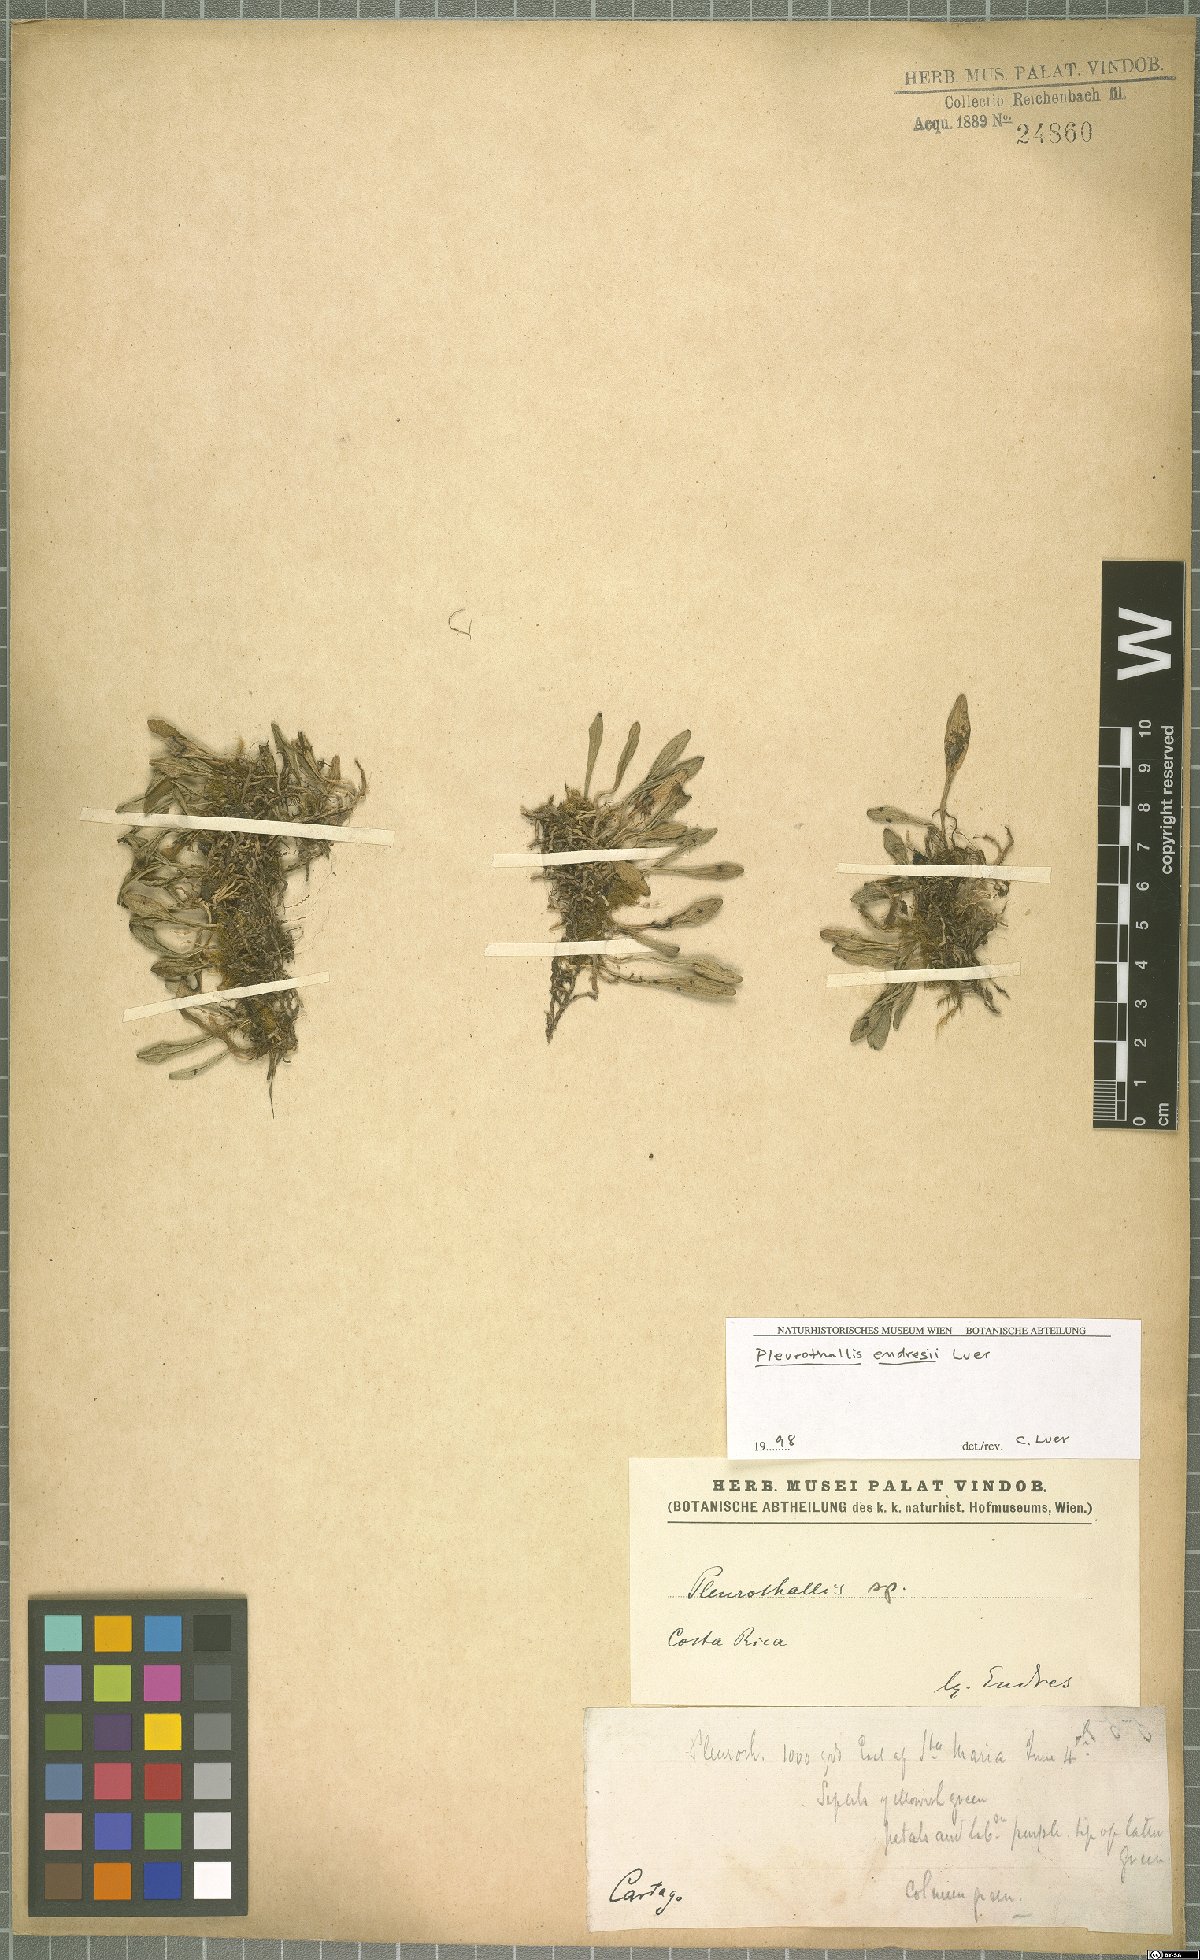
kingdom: Plantae
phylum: Tracheophyta
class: Liliopsida
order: Asparagales
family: Orchidaceae
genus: Anathallis
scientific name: Anathallis endresii
